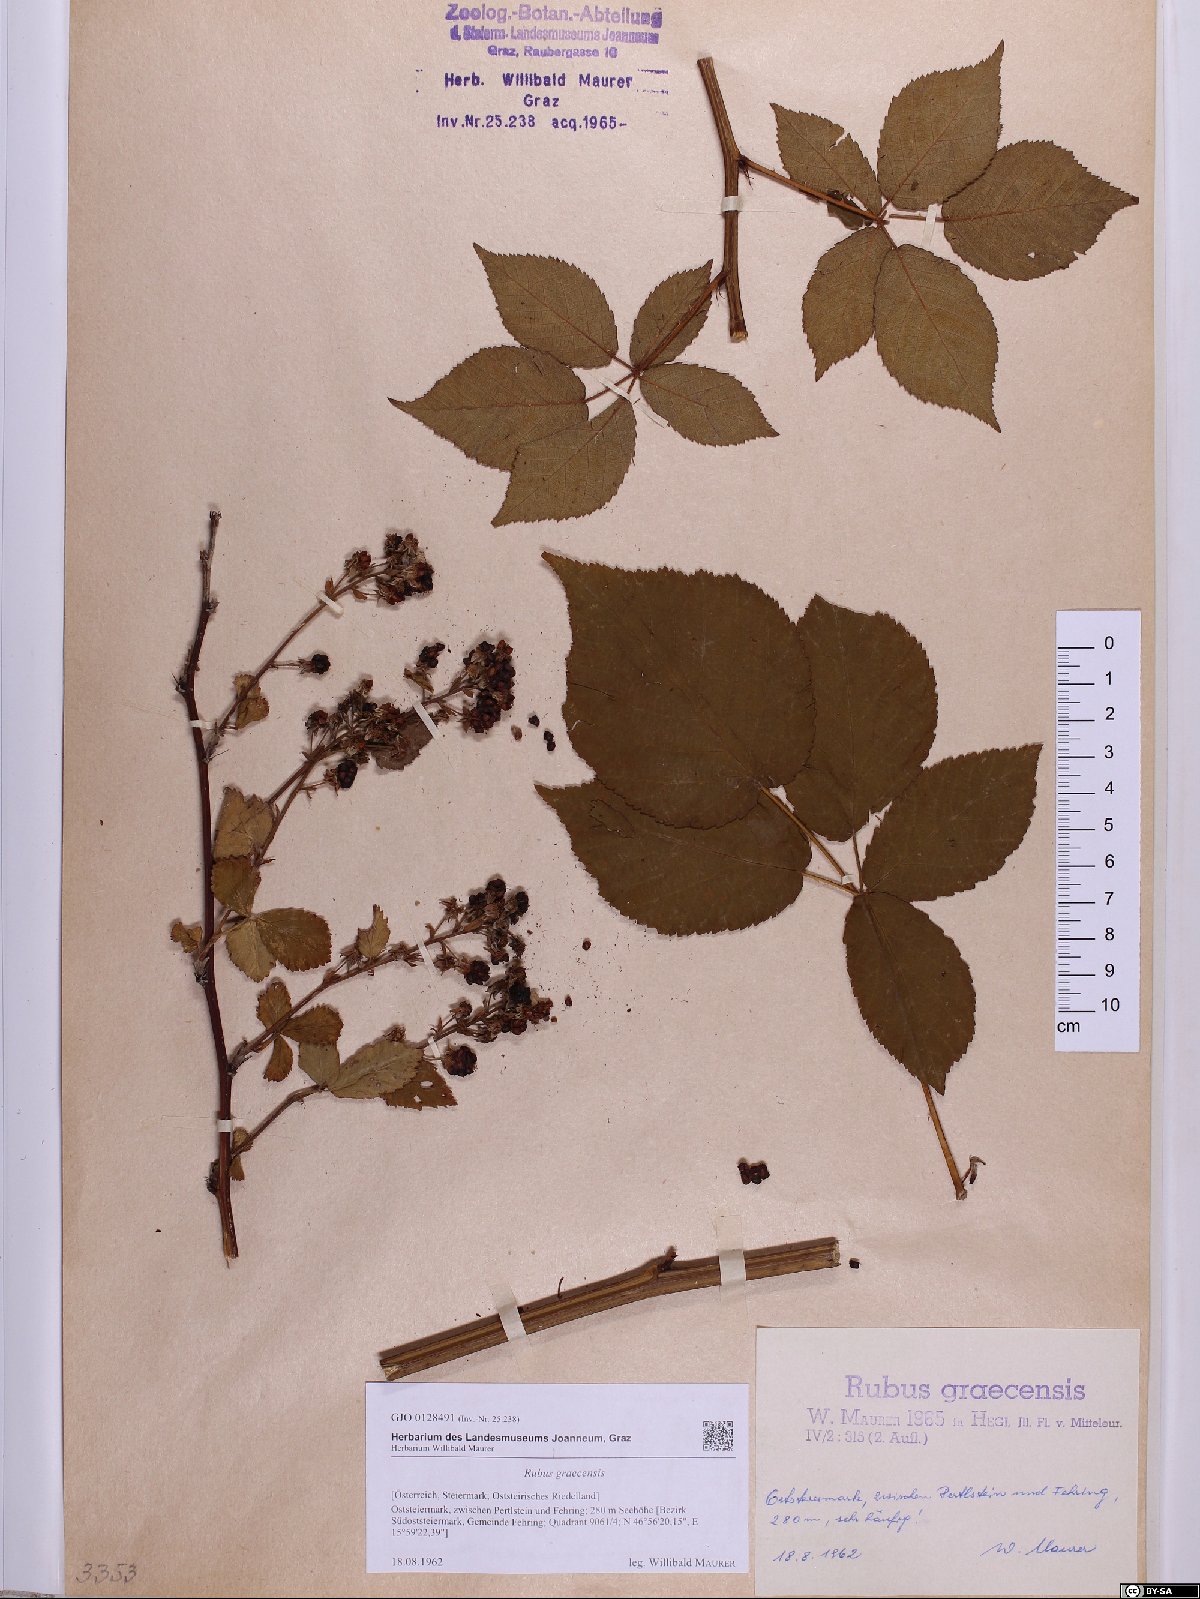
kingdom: Plantae
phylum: Tracheophyta
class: Magnoliopsida
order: Rosales
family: Rosaceae
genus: Rubus
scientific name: Rubus graecensis
